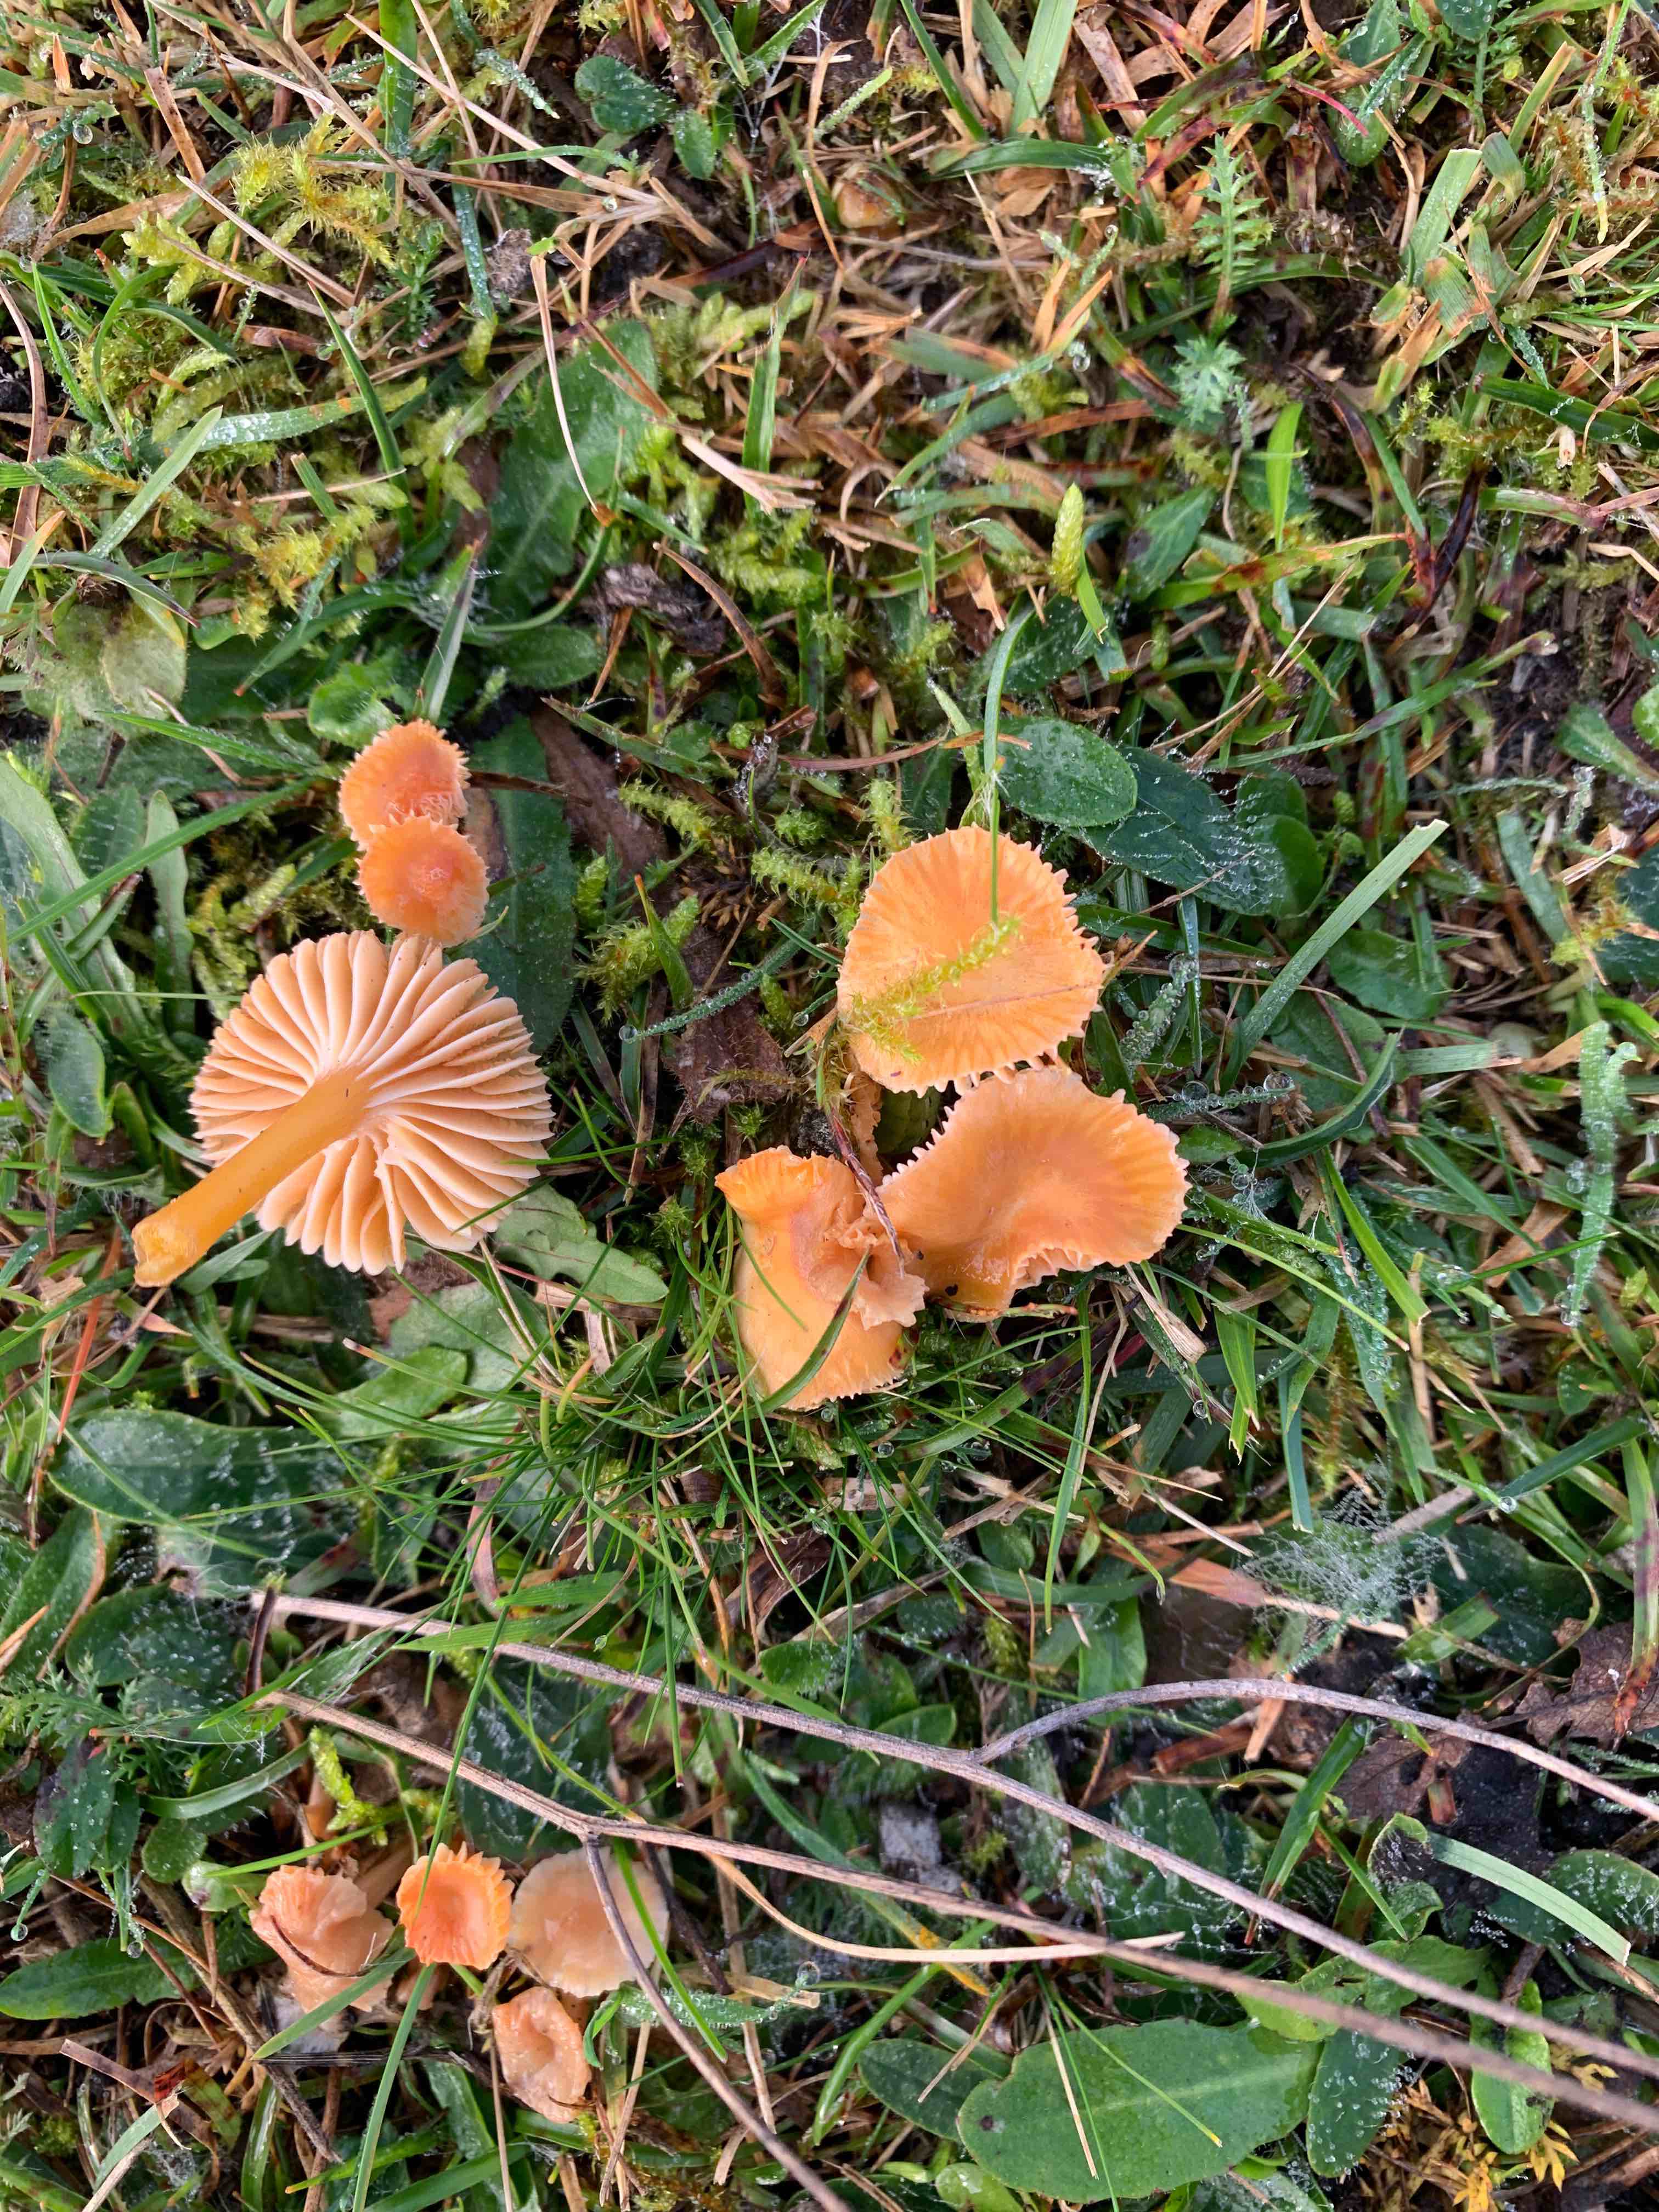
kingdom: Fungi
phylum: Basidiomycota
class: Agaricomycetes
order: Agaricales
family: Hygrophoraceae
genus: Gliophorus
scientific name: Gliophorus laetus
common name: brusk-vokshat
